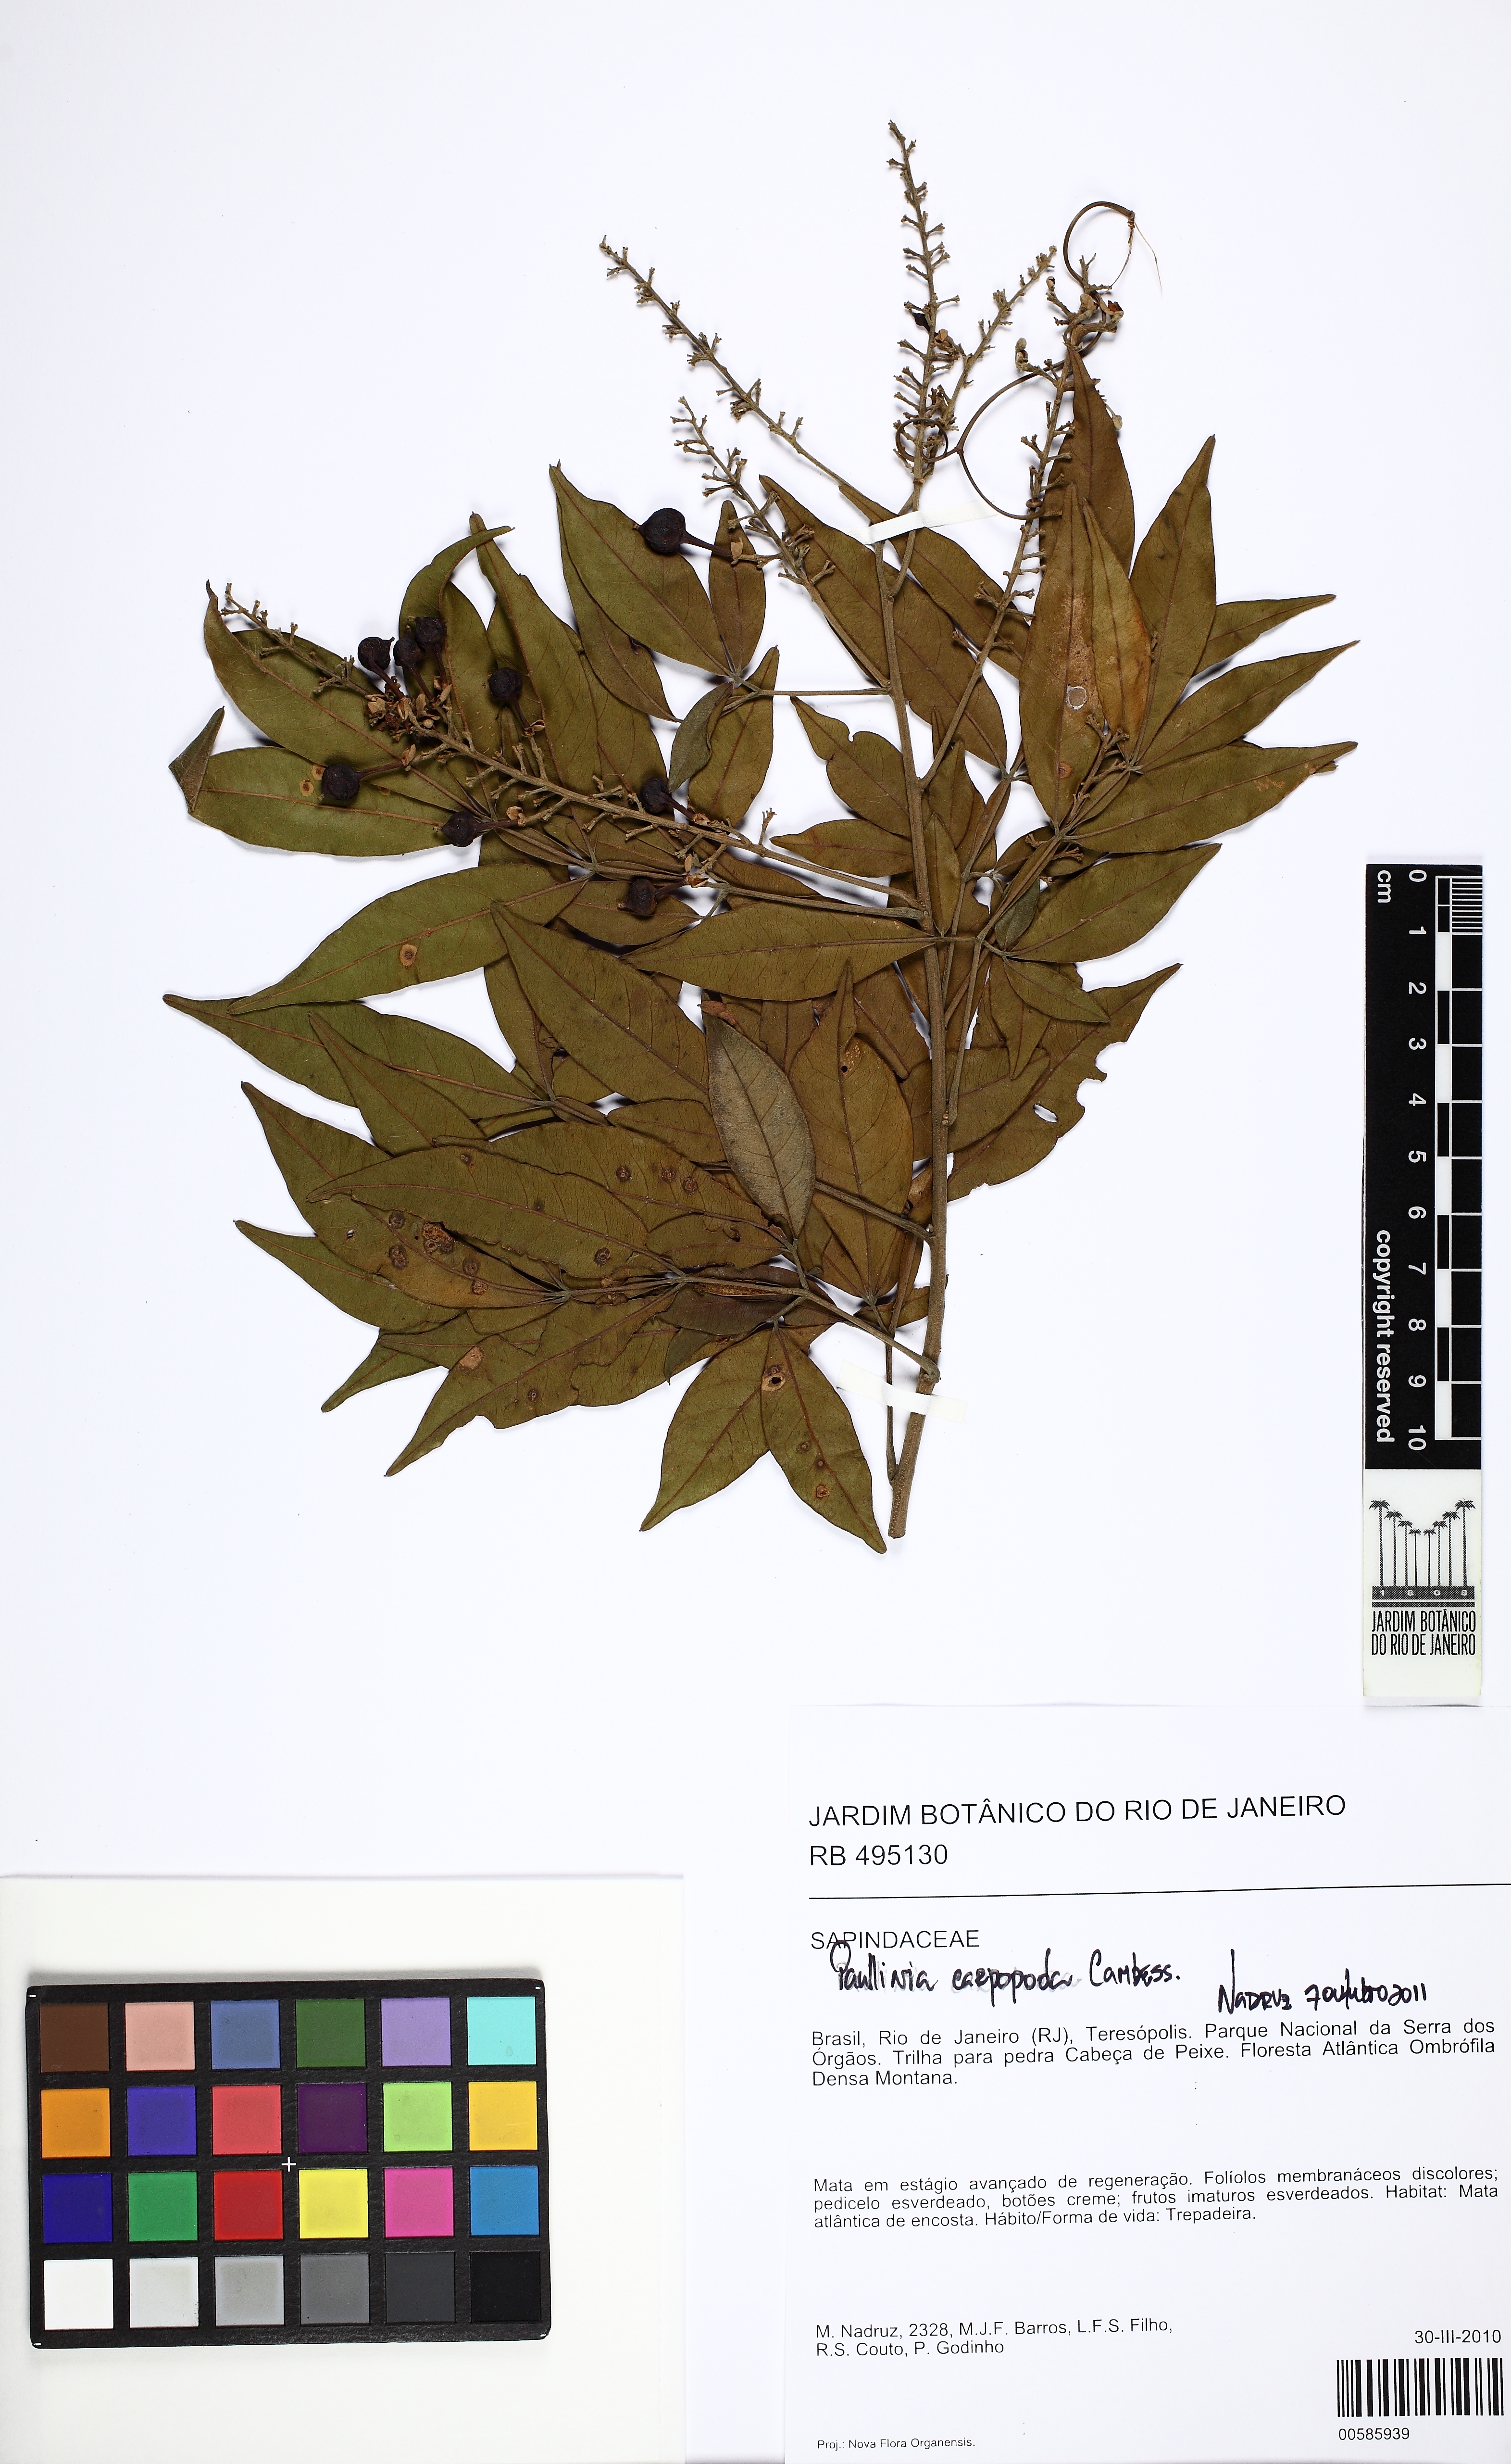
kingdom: Plantae
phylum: Tracheophyta
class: Magnoliopsida
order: Sapindales
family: Sapindaceae
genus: Paullinia
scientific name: Paullinia carpopodea
